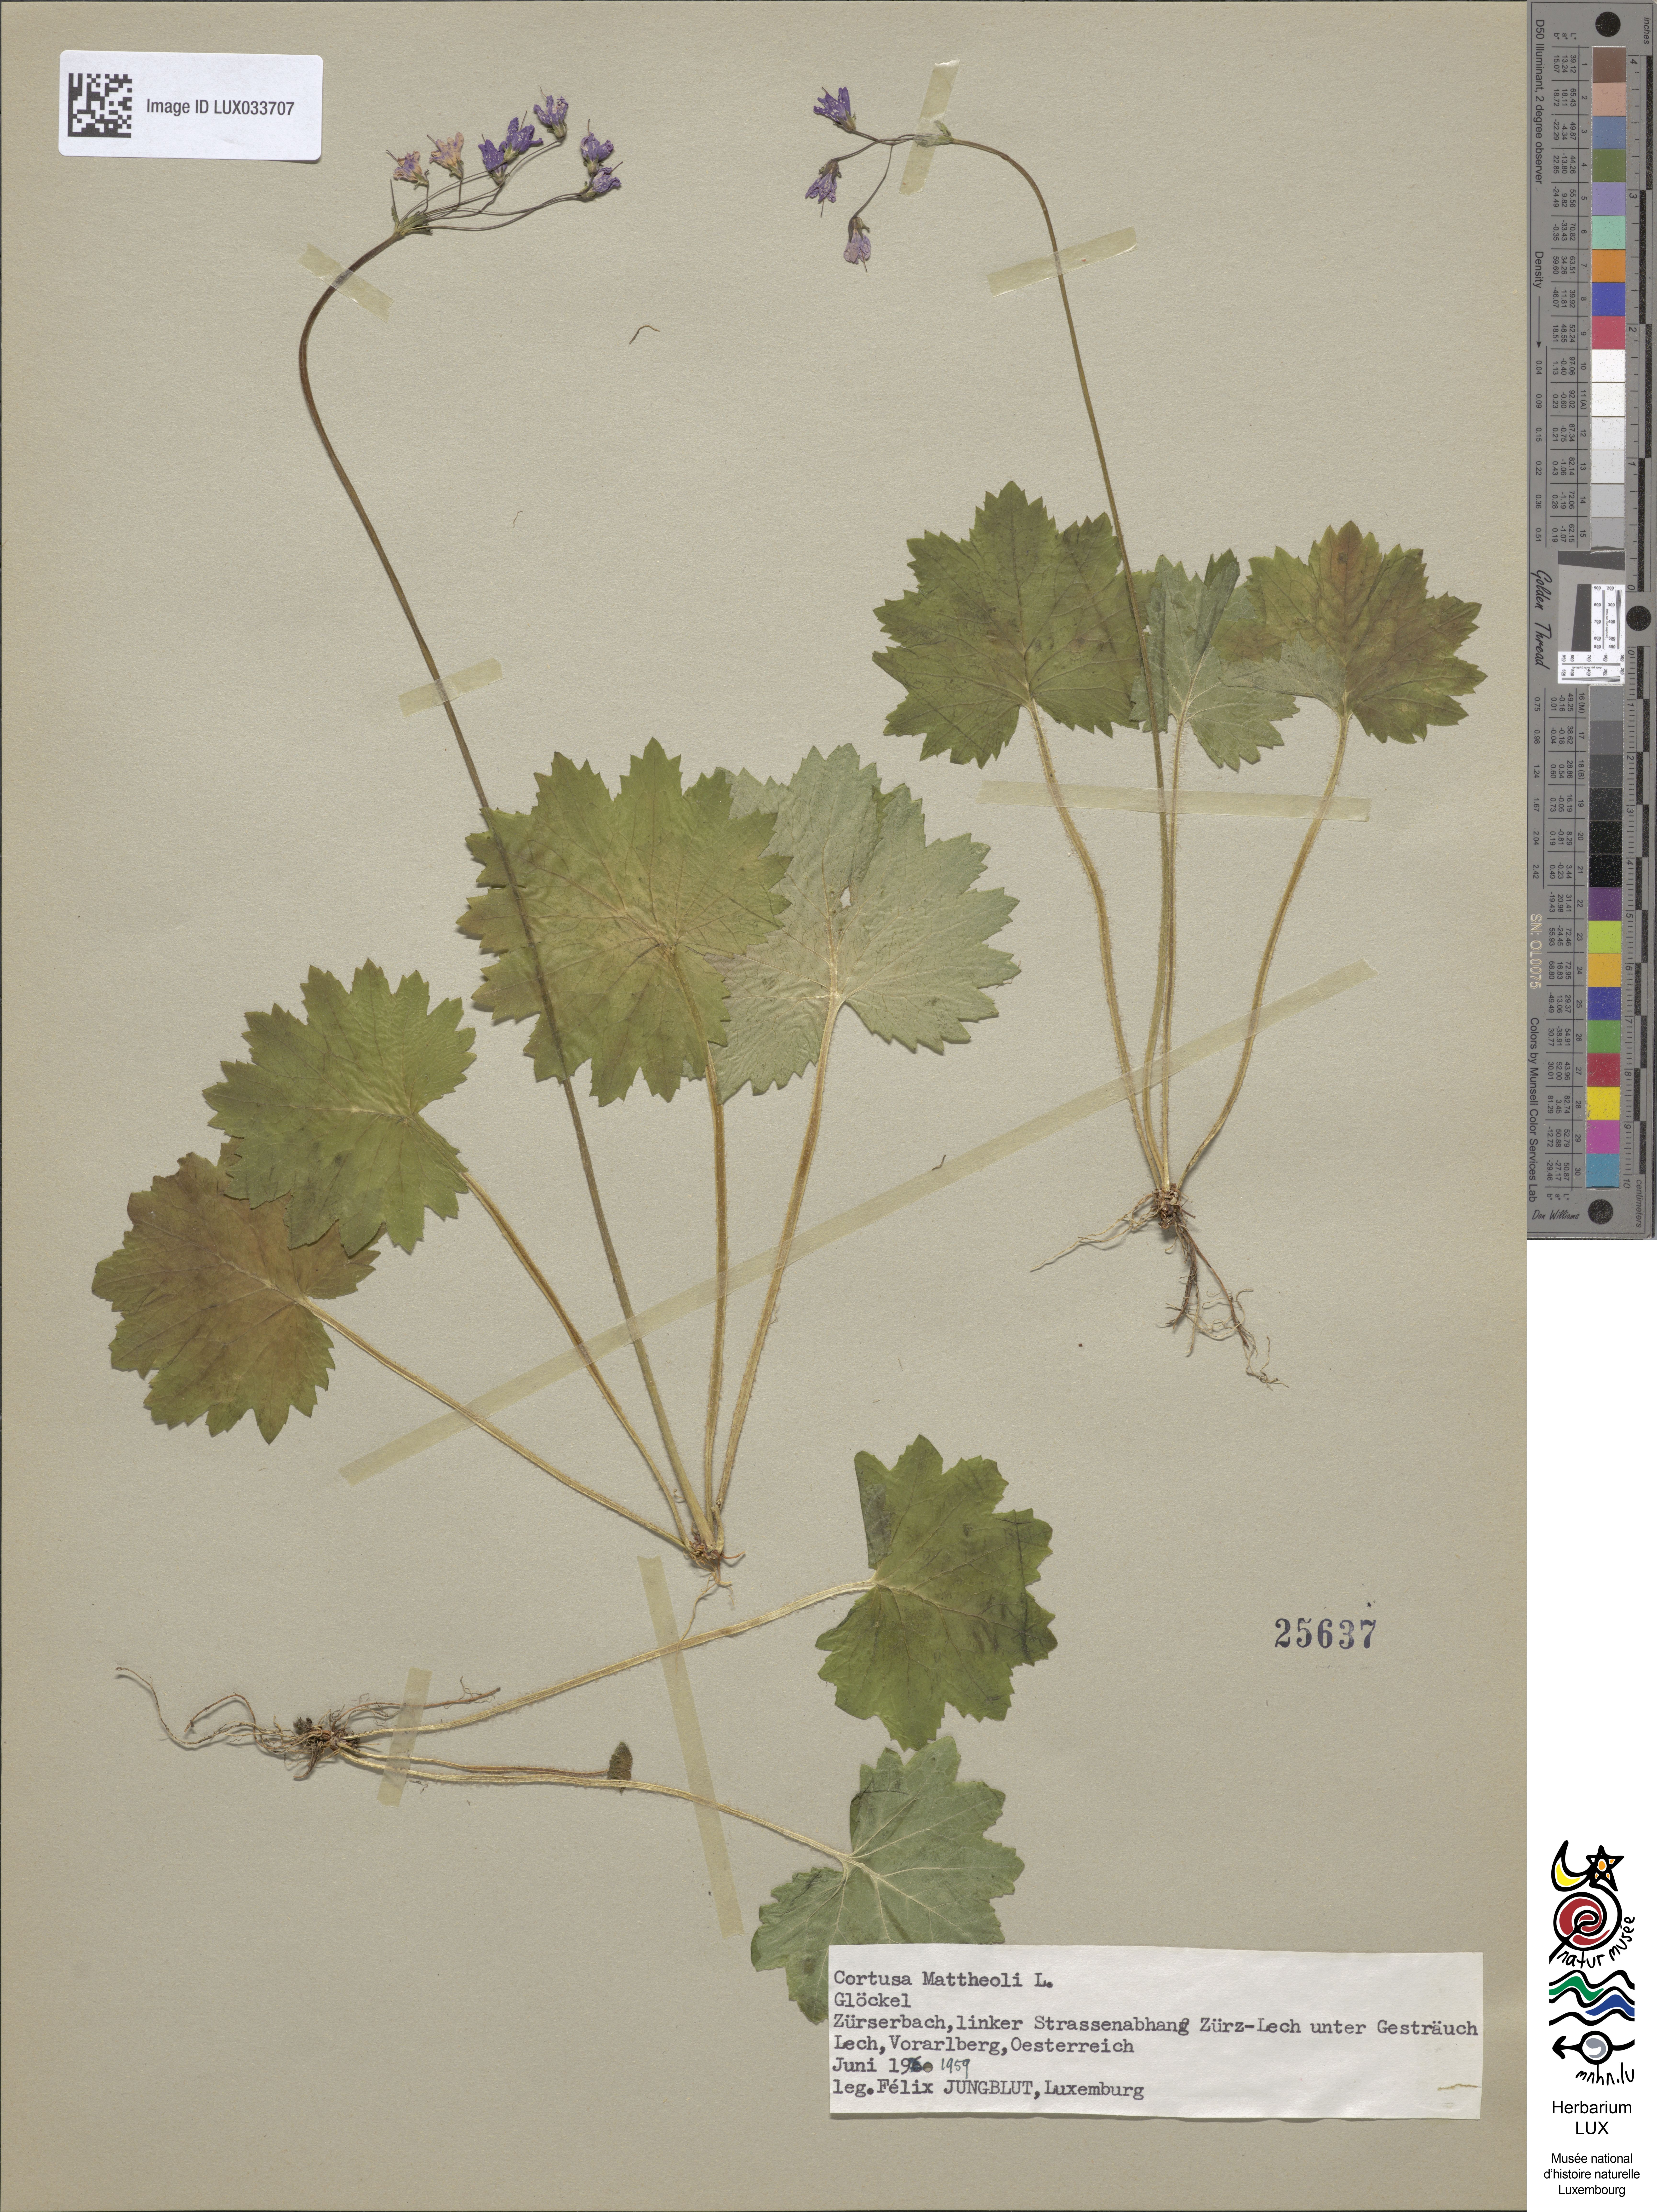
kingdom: Plantae
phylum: Tracheophyta
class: Magnoliopsida
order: Ericales
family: Primulaceae
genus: Primula
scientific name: Primula matthioli
